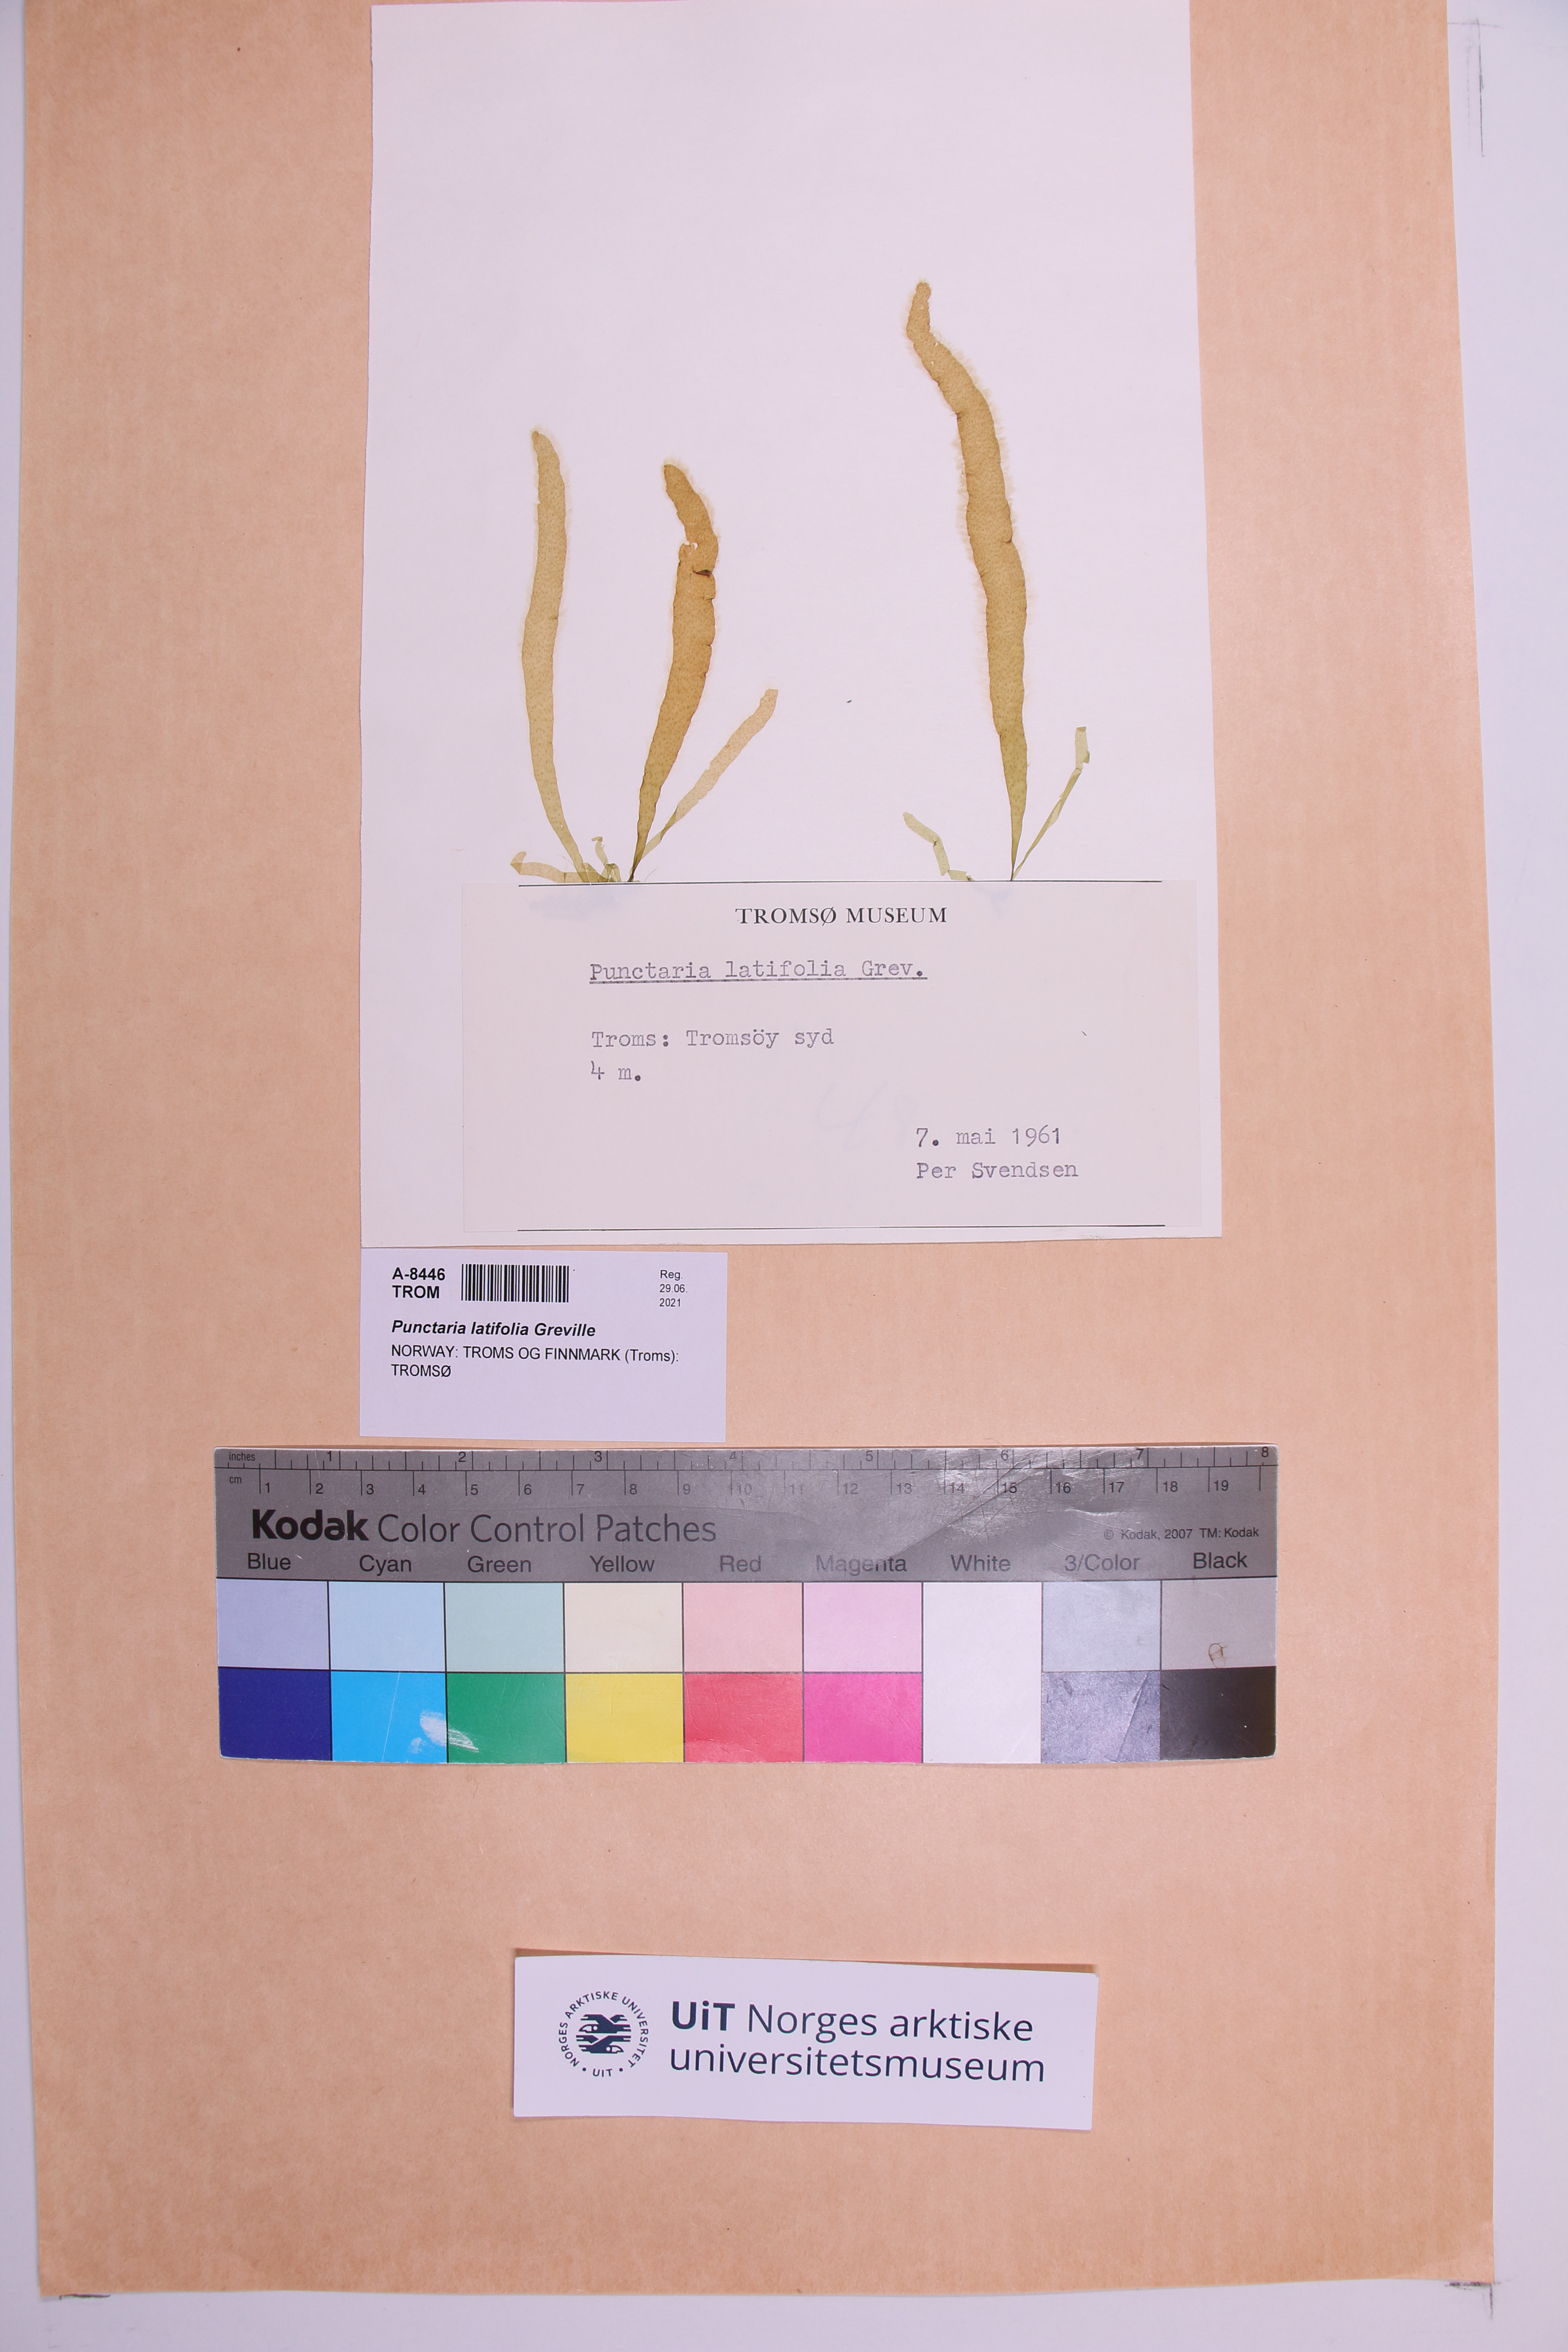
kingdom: Chromista
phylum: Ochrophyta
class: Phaeophyceae
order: Ectocarpales
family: Chordariaceae
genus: Punctaria
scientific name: Punctaria latifolia
